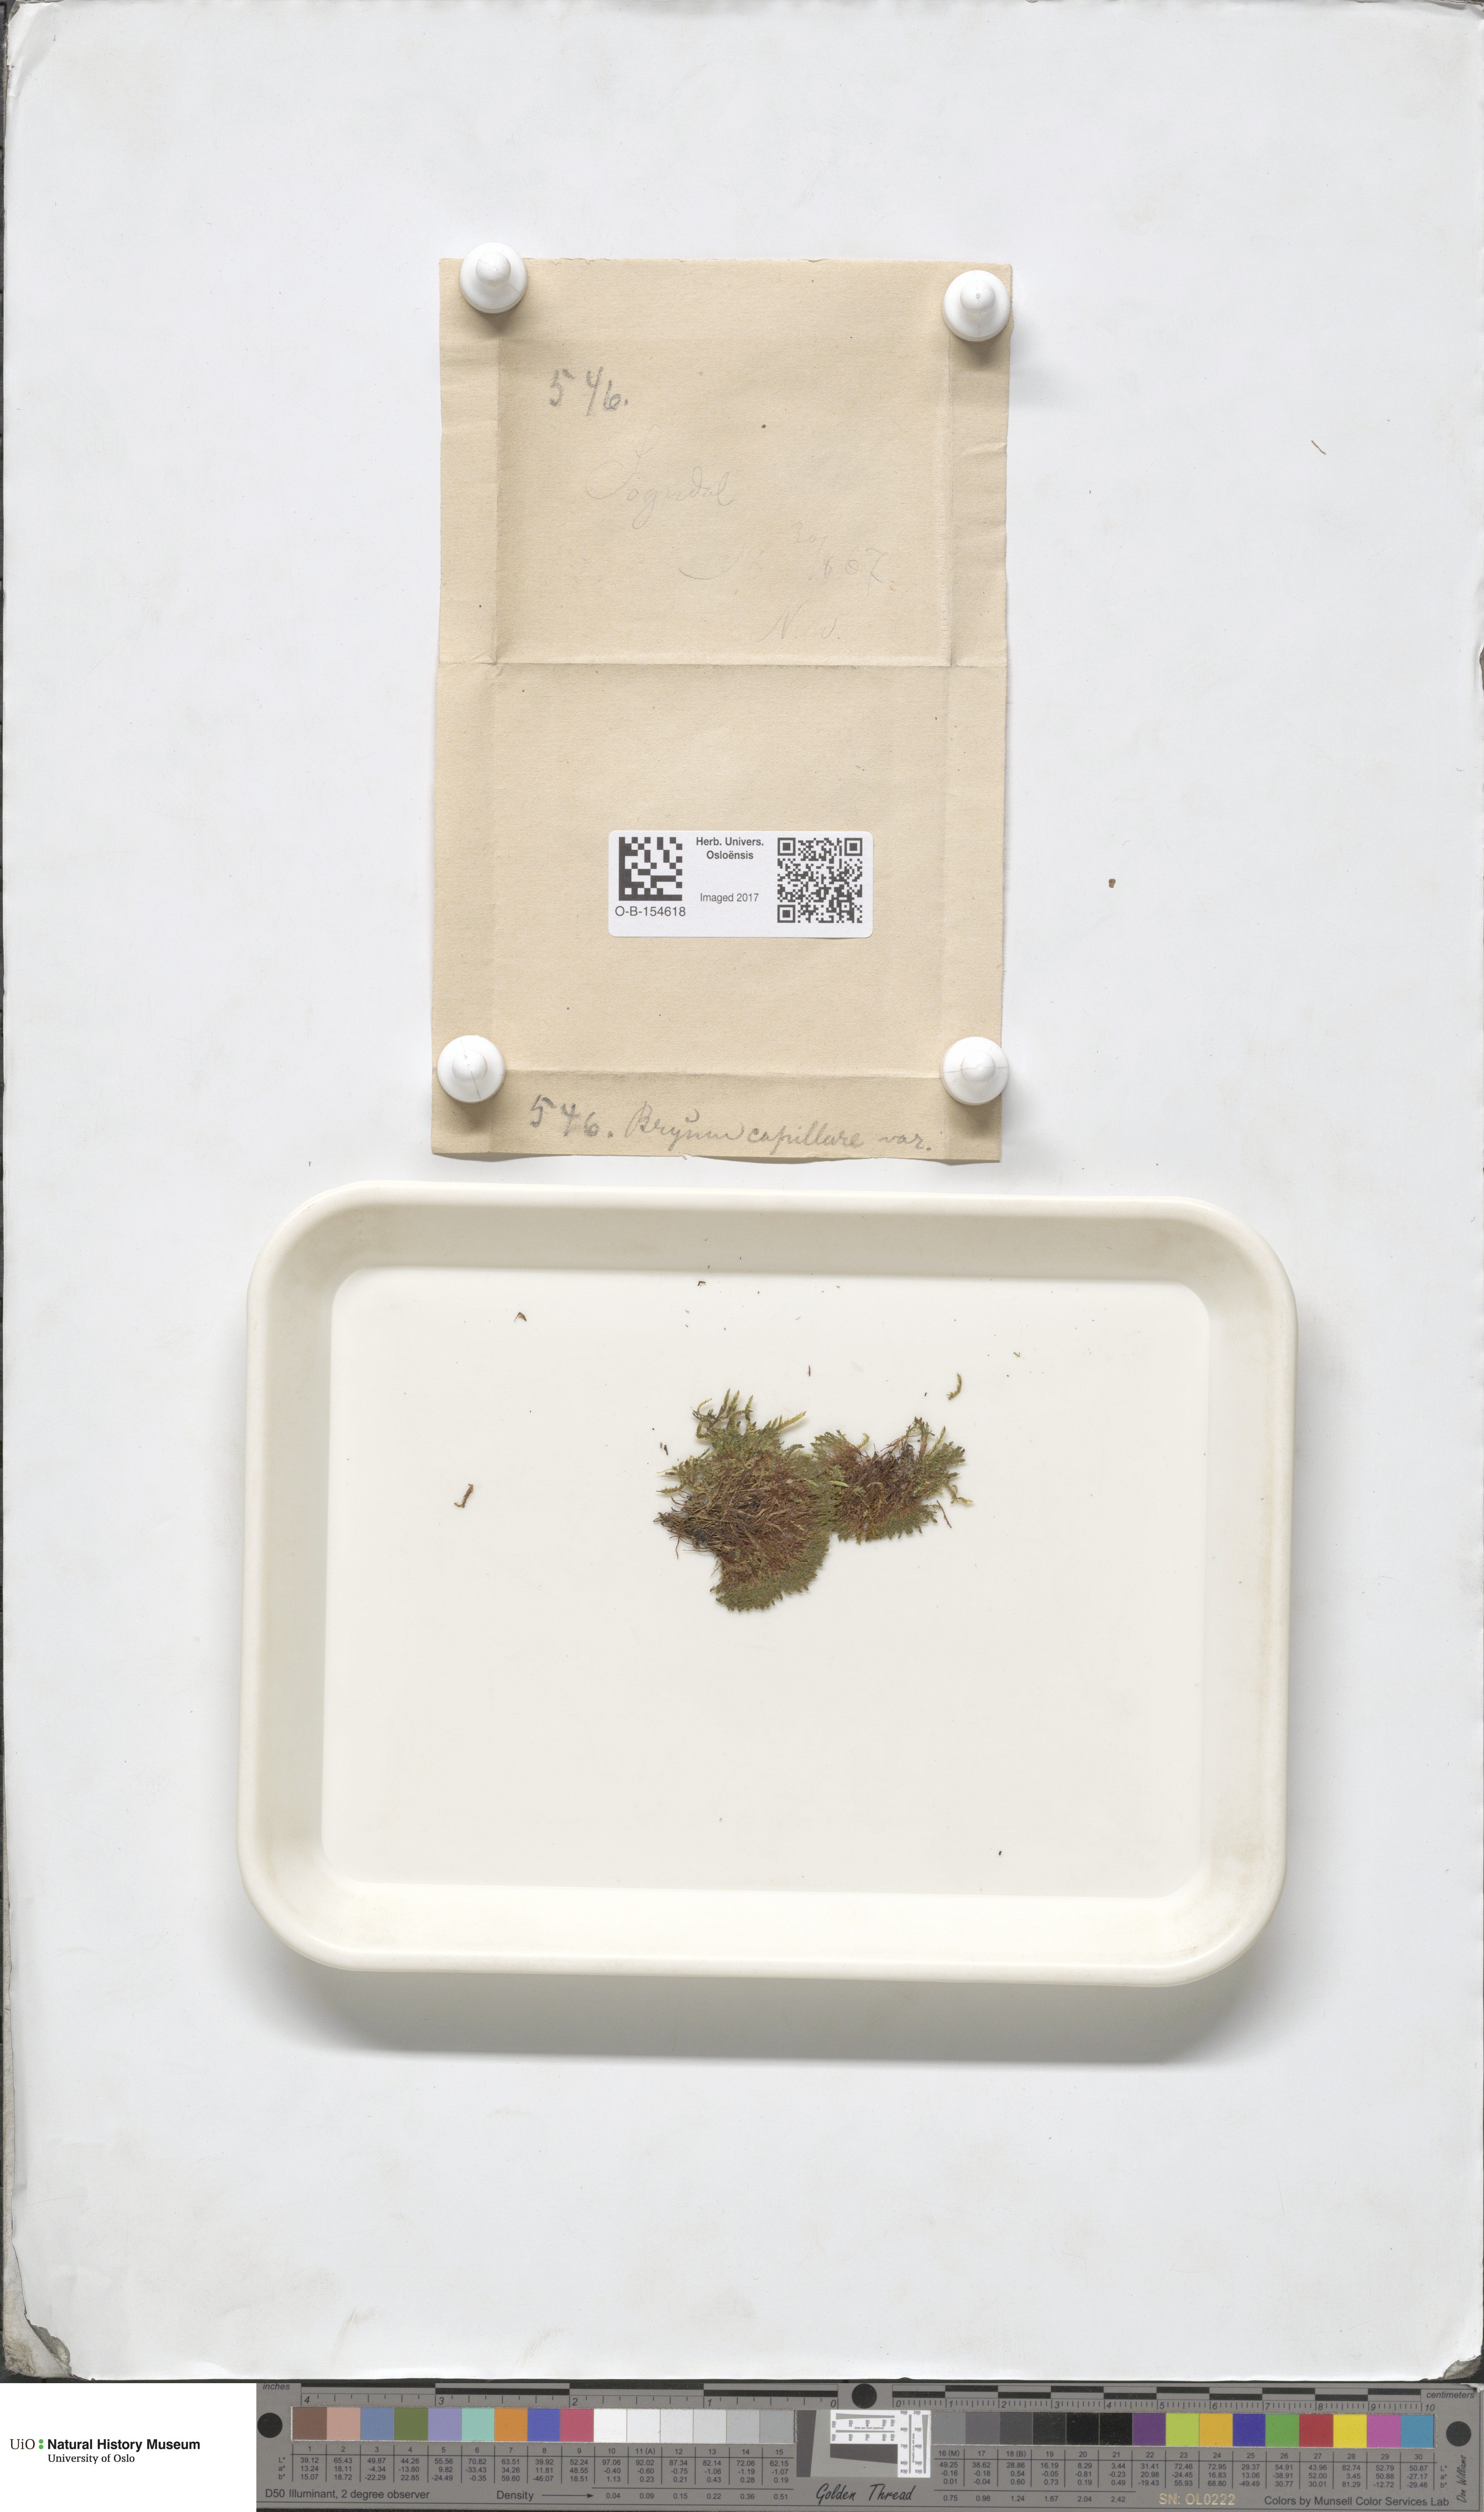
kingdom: Plantae
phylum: Bryophyta
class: Bryopsida
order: Bryales
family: Bryaceae
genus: Rosulabryum
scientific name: Rosulabryum capillare
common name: Capillary thread-moss
